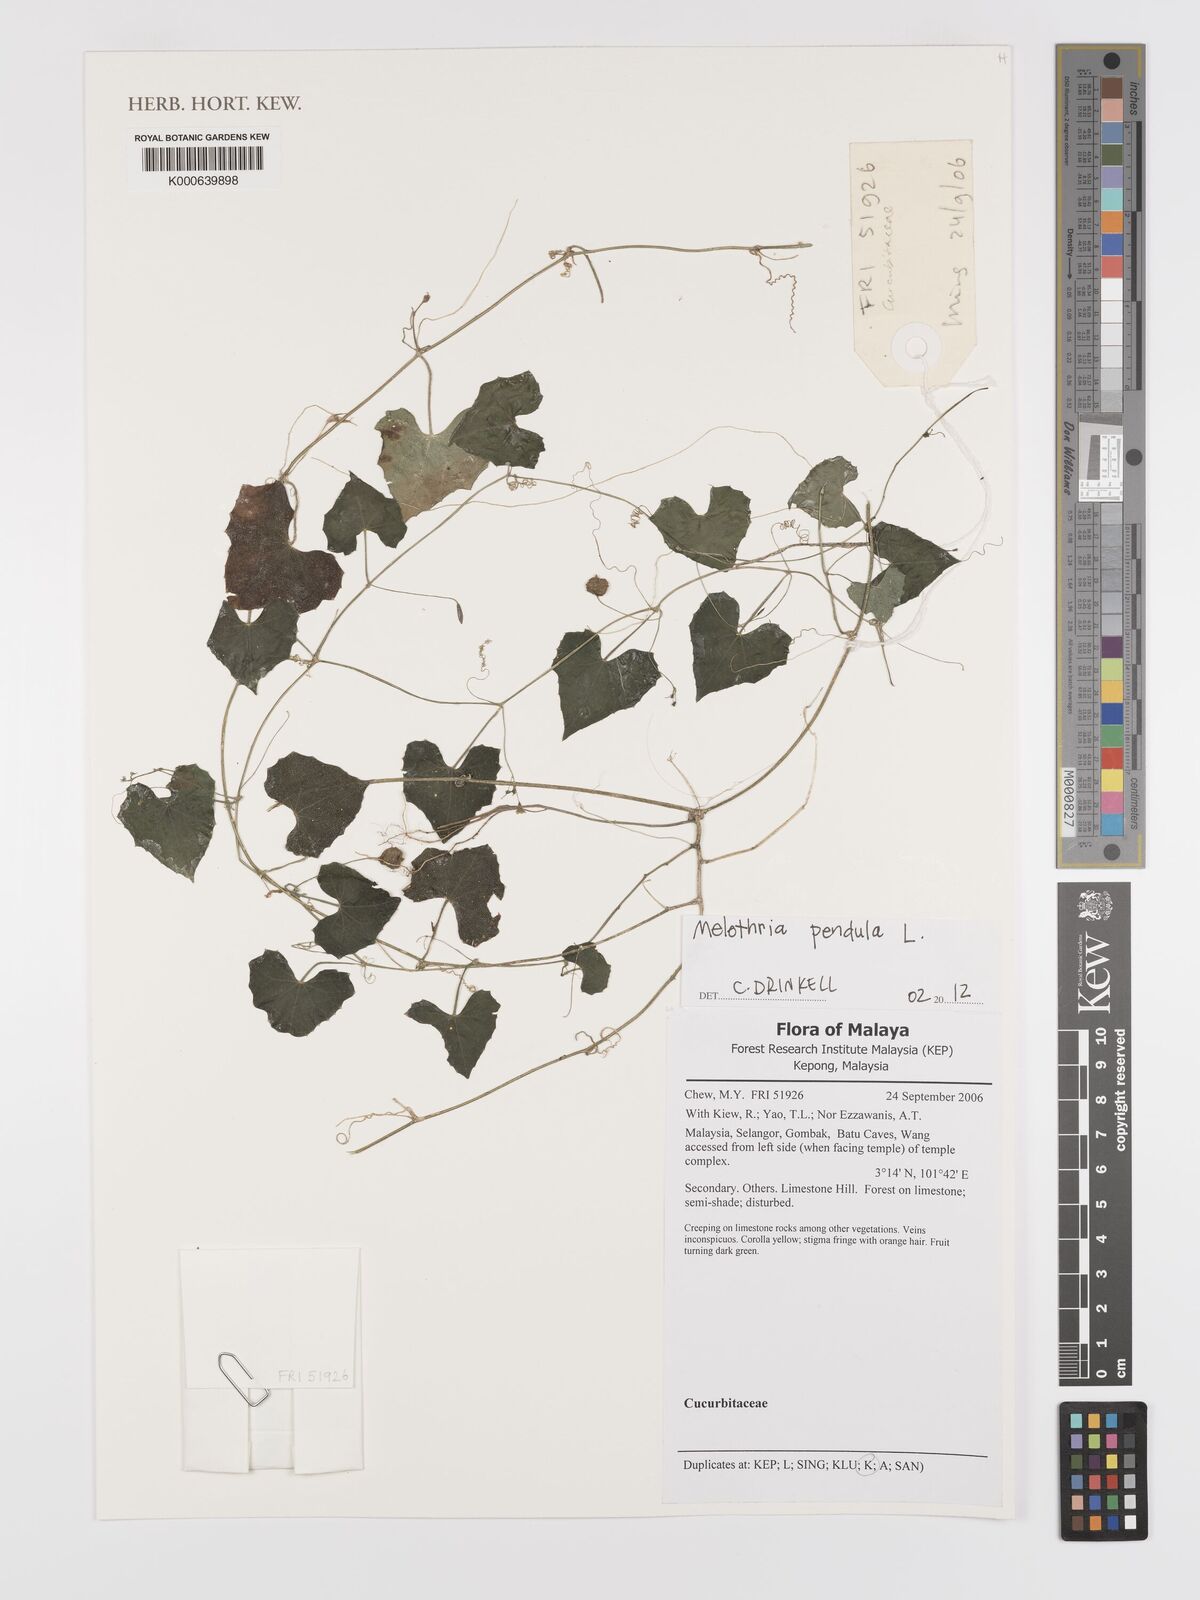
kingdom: Plantae
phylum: Tracheophyta
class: Magnoliopsida
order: Cucurbitales
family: Cucurbitaceae
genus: Melothria
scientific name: Melothria pendula
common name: Creeping-cucumber
